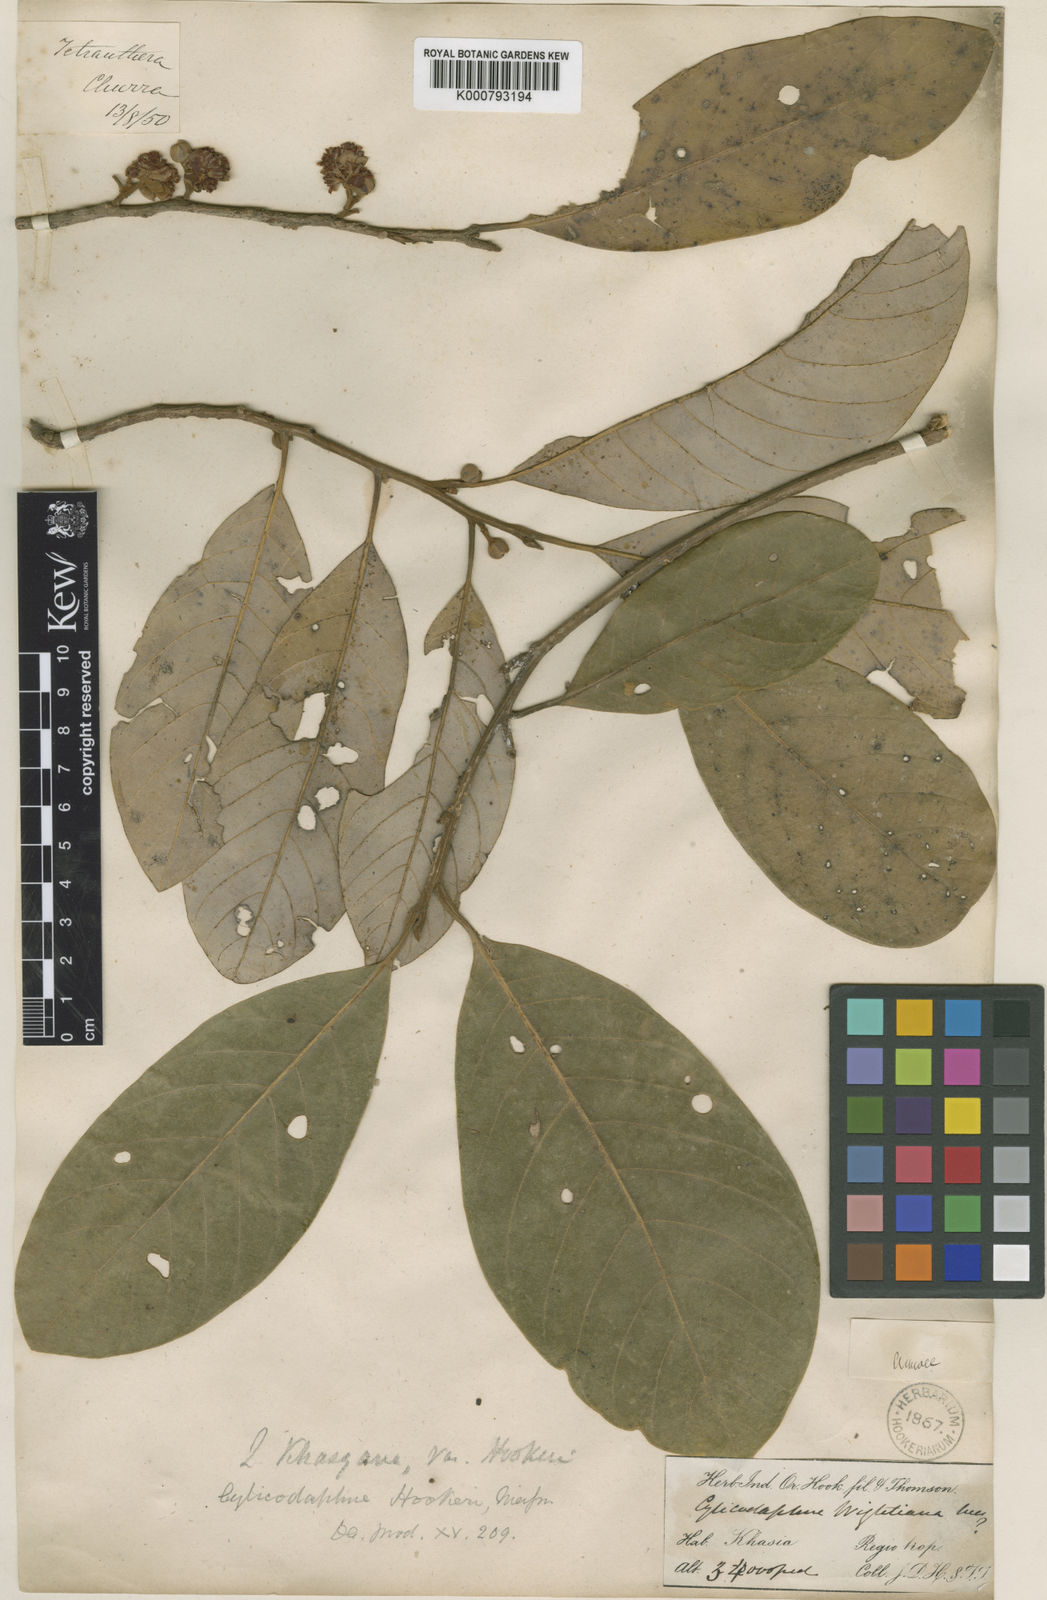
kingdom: Plantae
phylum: Tracheophyta
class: Magnoliopsida
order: Laurales
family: Lauraceae
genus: Litsea
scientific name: Litsea khasyana
